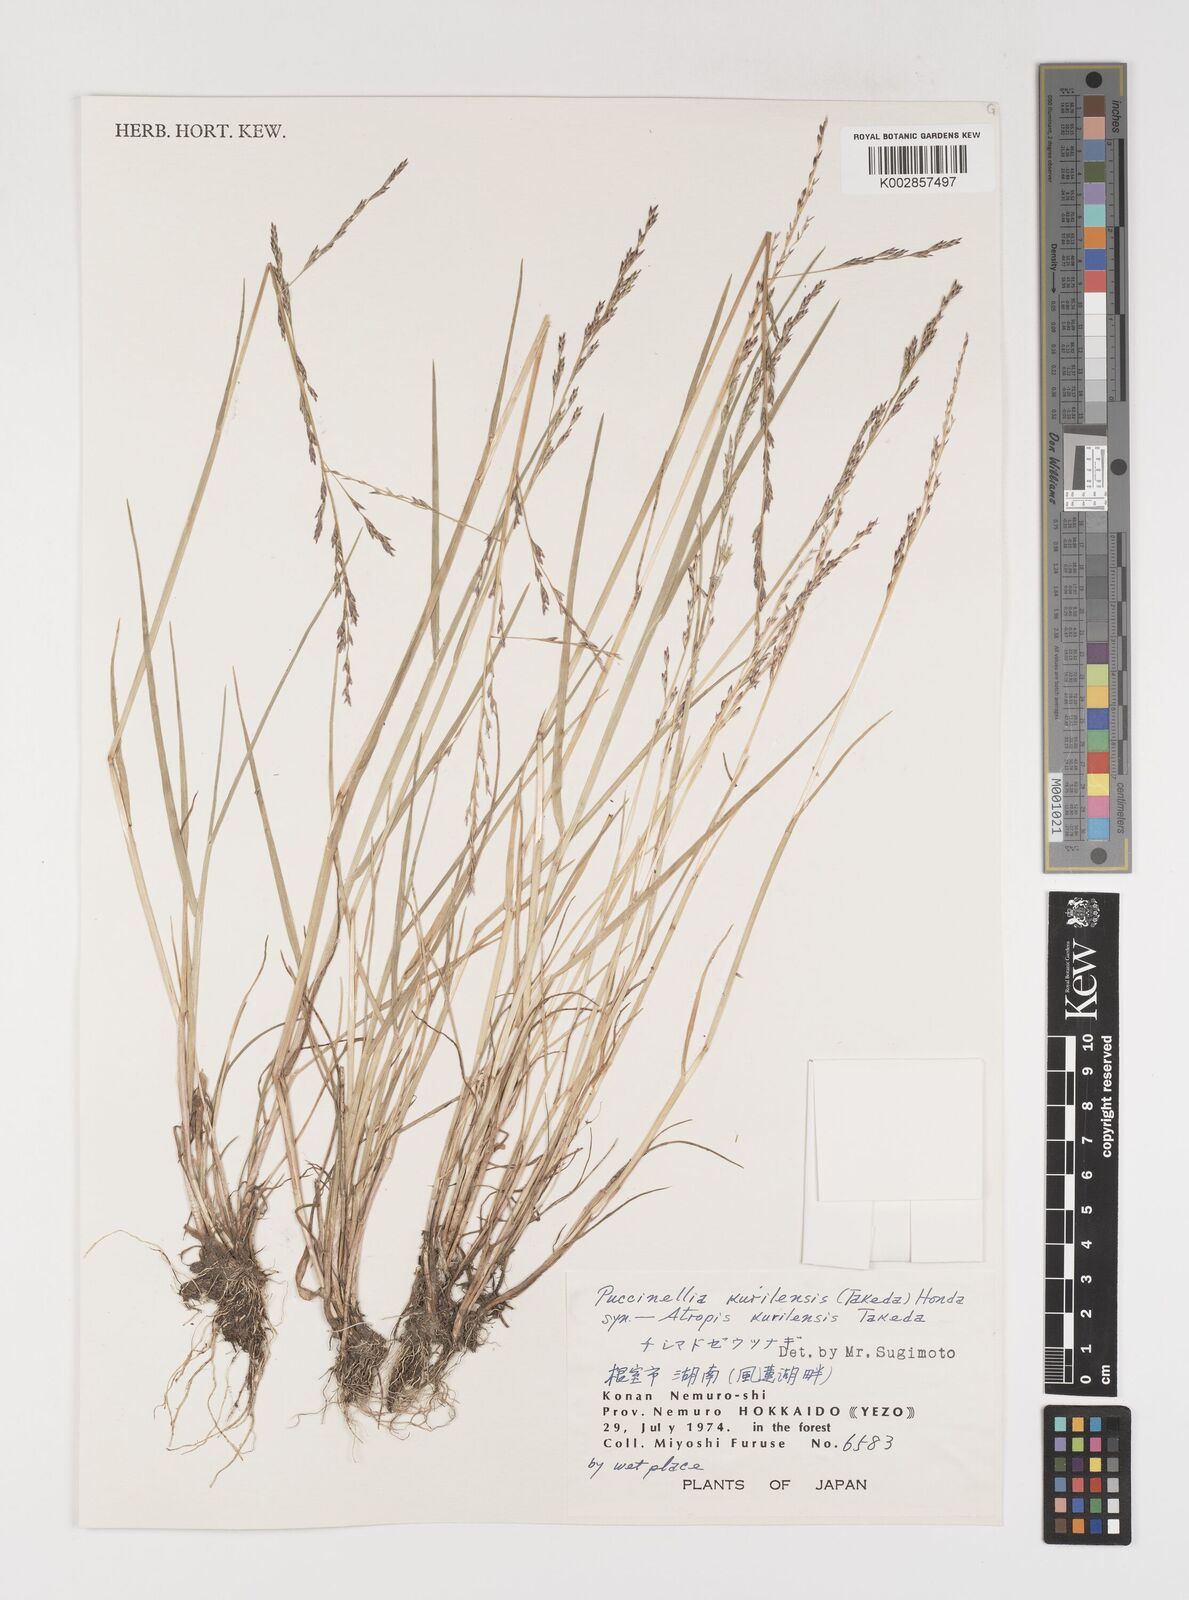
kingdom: Plantae
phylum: Tracheophyta
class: Liliopsida
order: Poales
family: Poaceae
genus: Puccinellia
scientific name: Puccinellia pumila
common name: Dwarf alkaligrass
